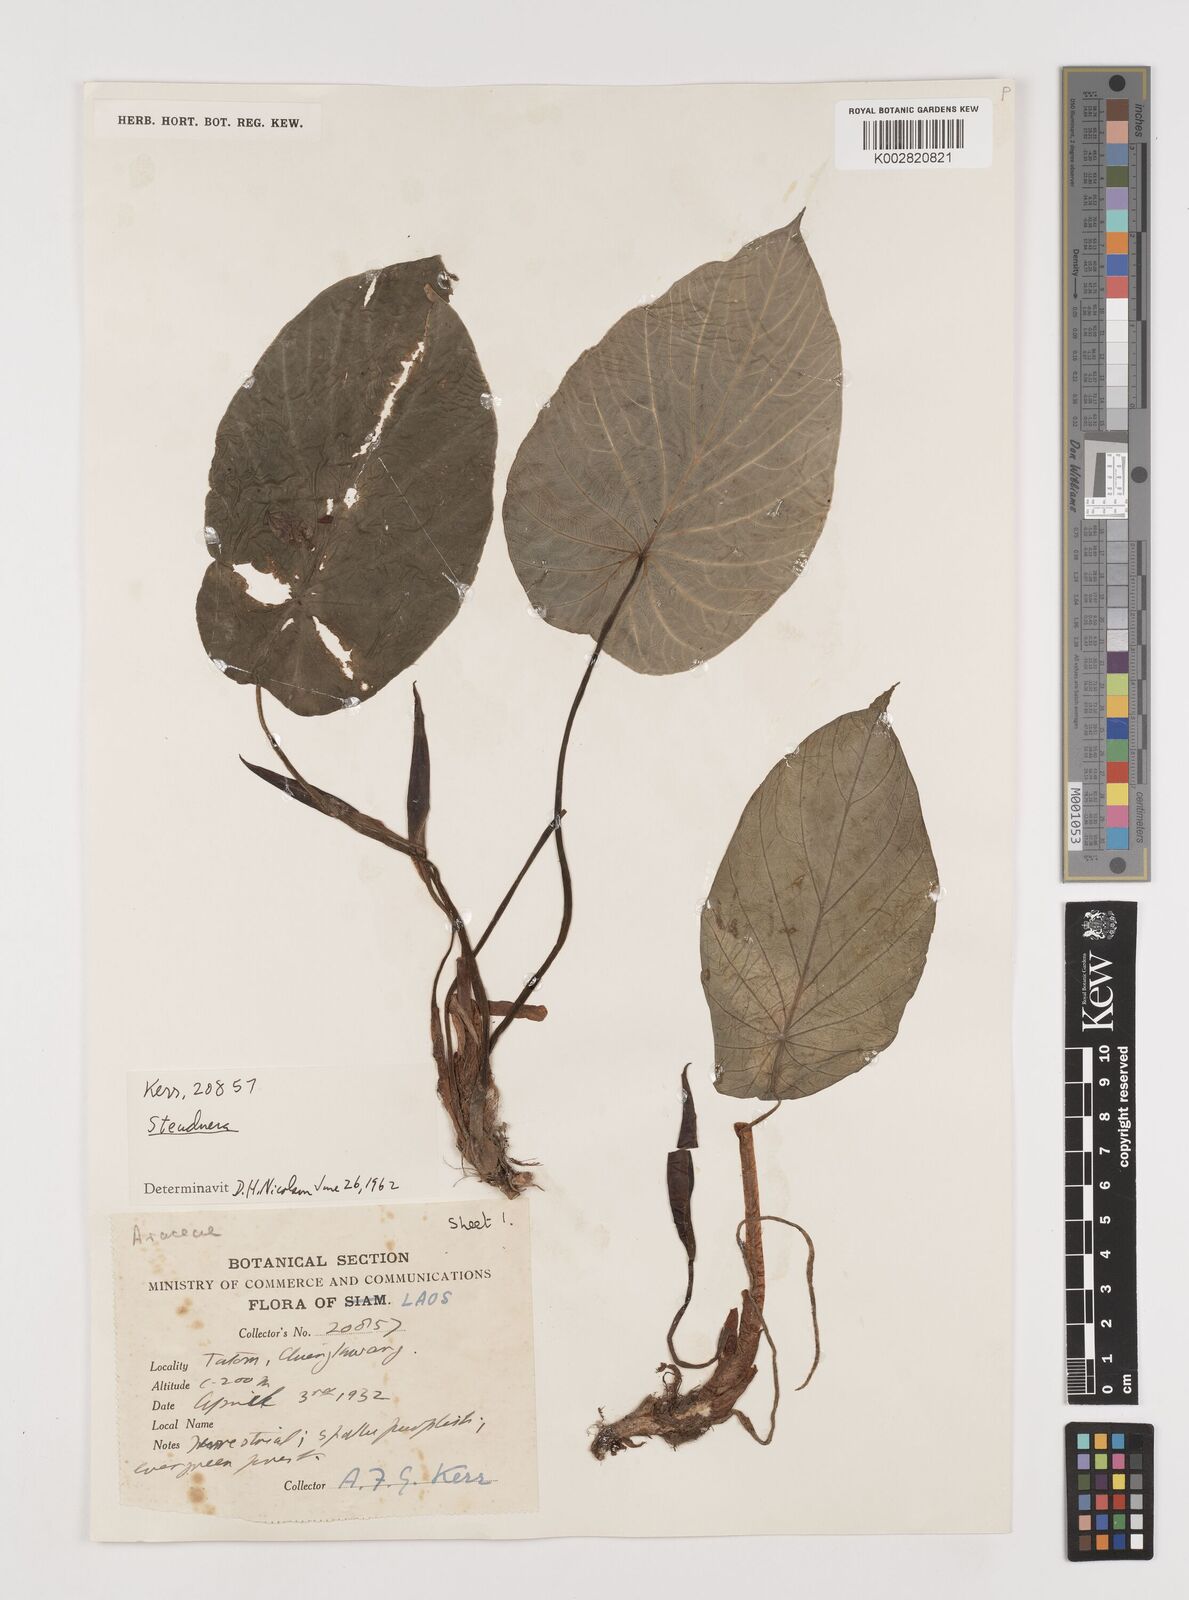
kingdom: Plantae
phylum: Tracheophyta
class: Liliopsida
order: Alismatales
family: Araceae
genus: Steudnera
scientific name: Steudnera henryana
